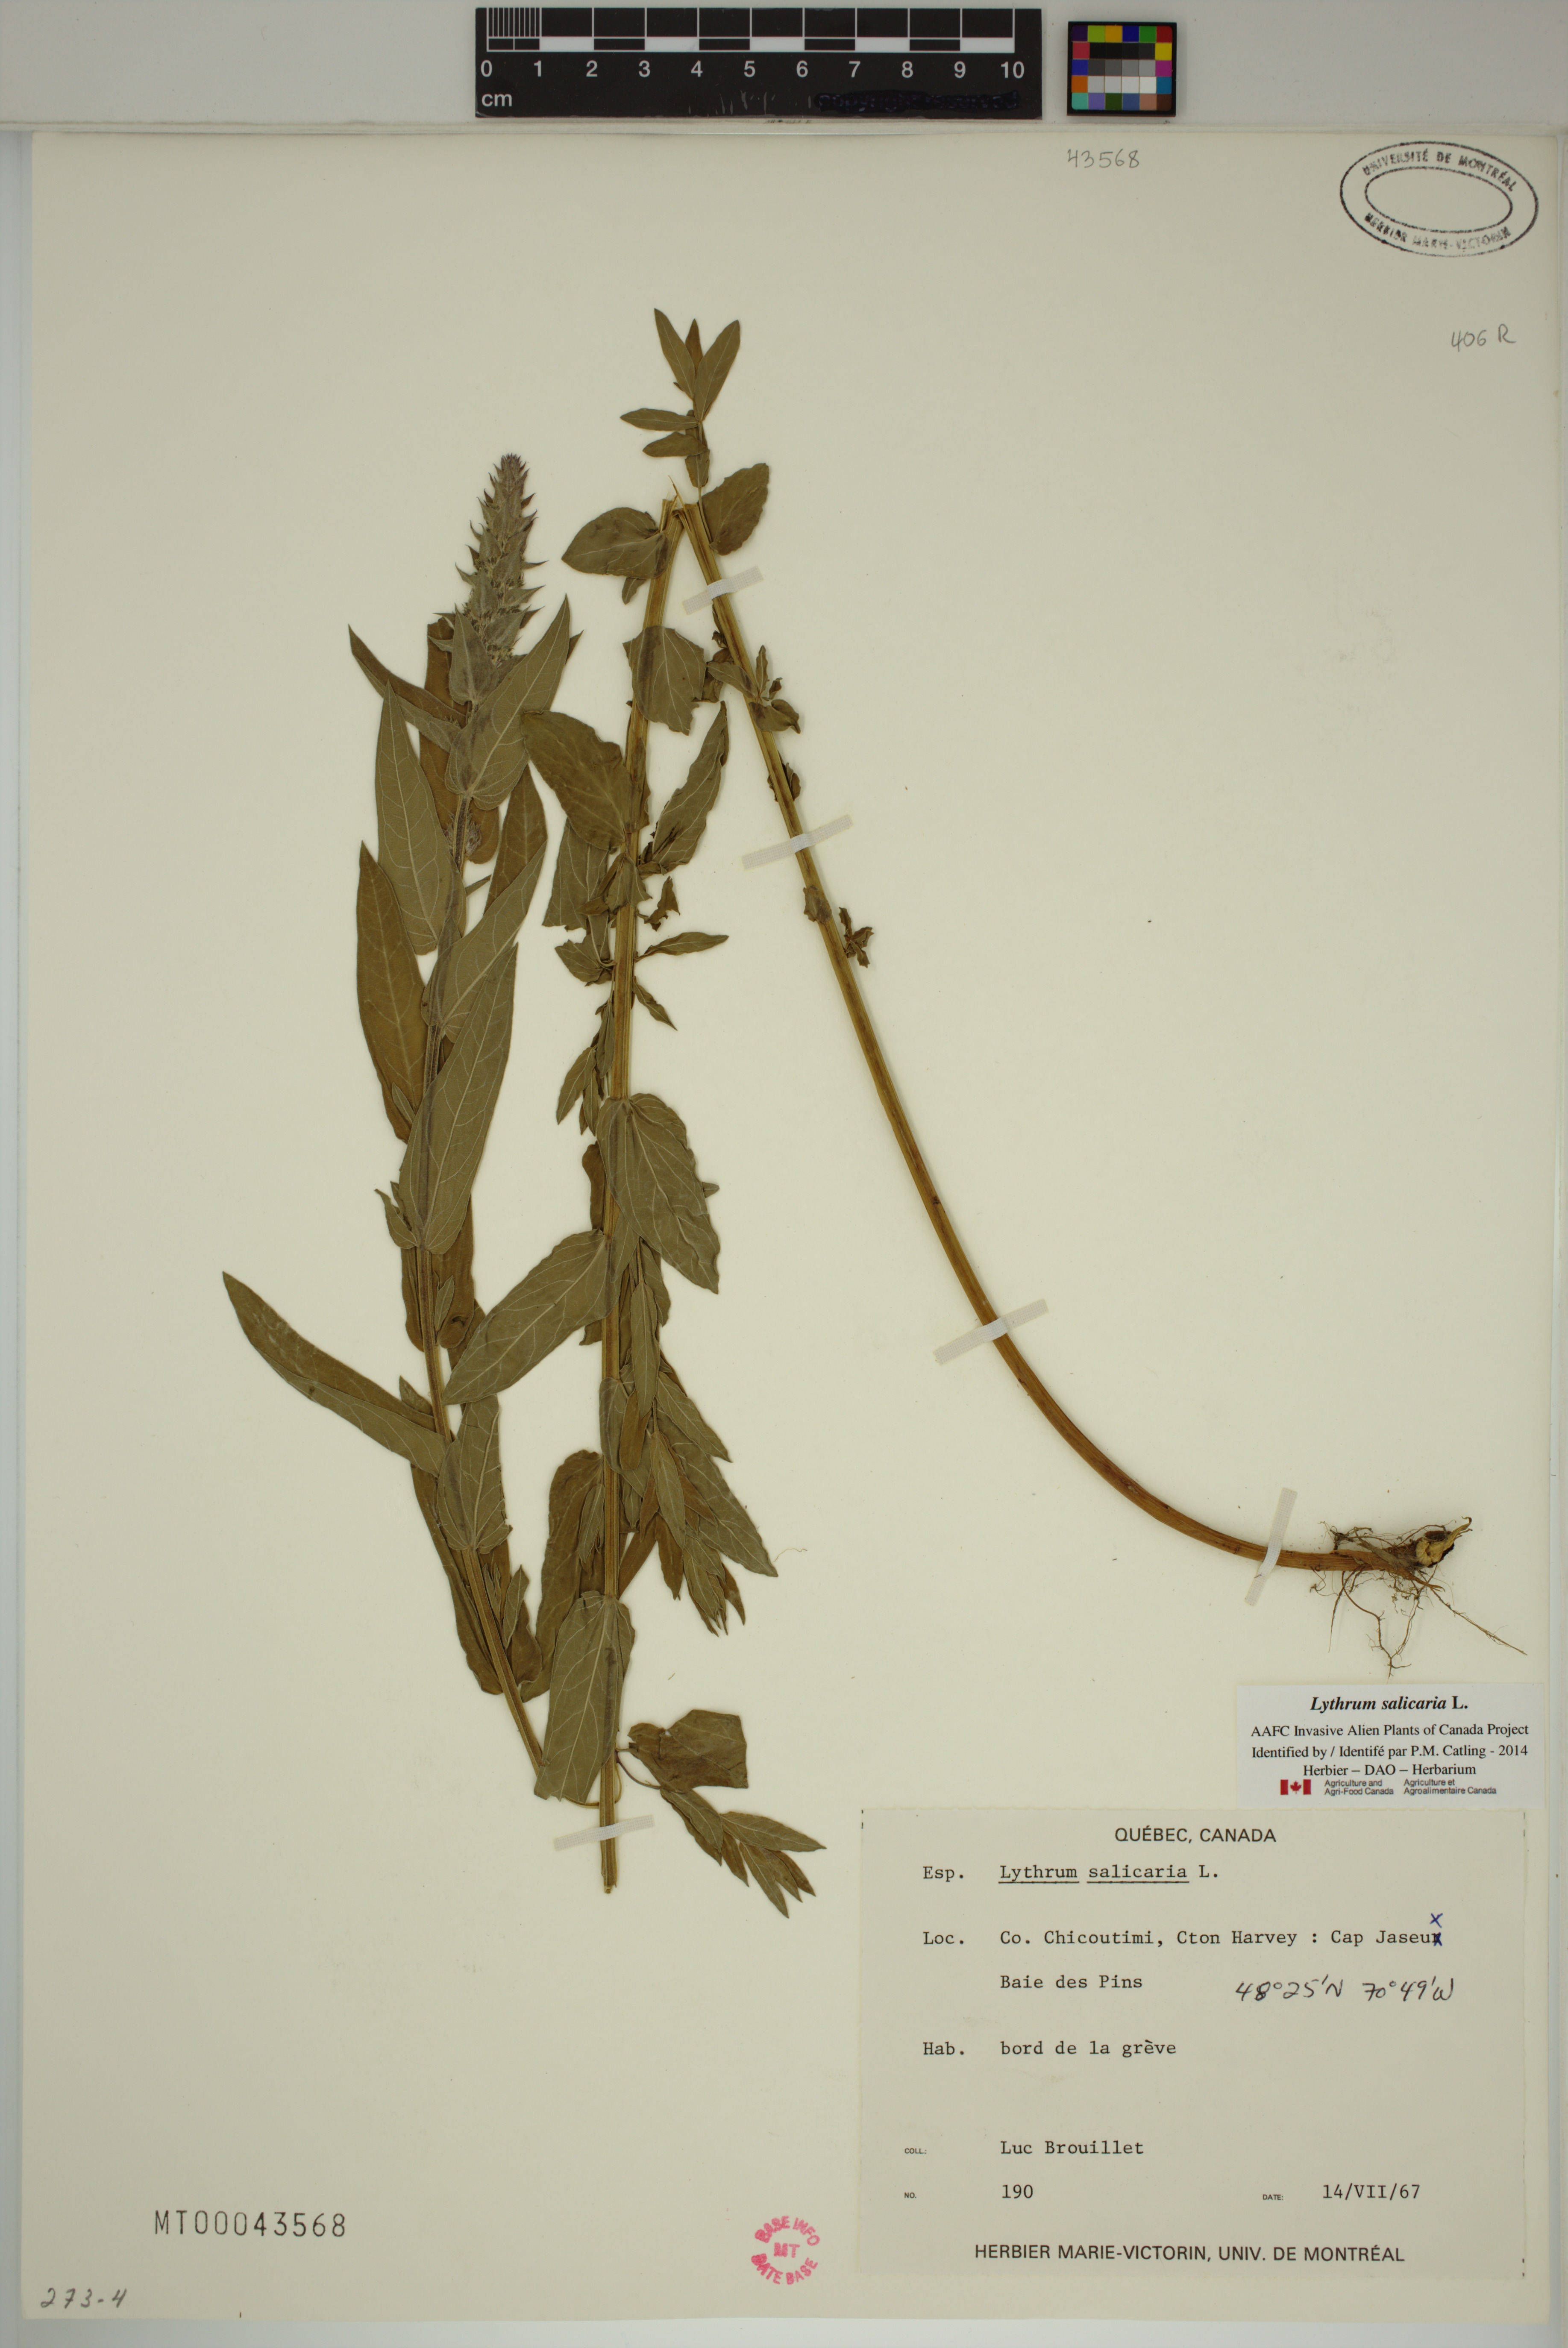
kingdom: Plantae
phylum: Tracheophyta
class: Magnoliopsida
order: Myrtales
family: Lythraceae
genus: Lythrum
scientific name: Lythrum salicaria
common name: Purple loosestrife
